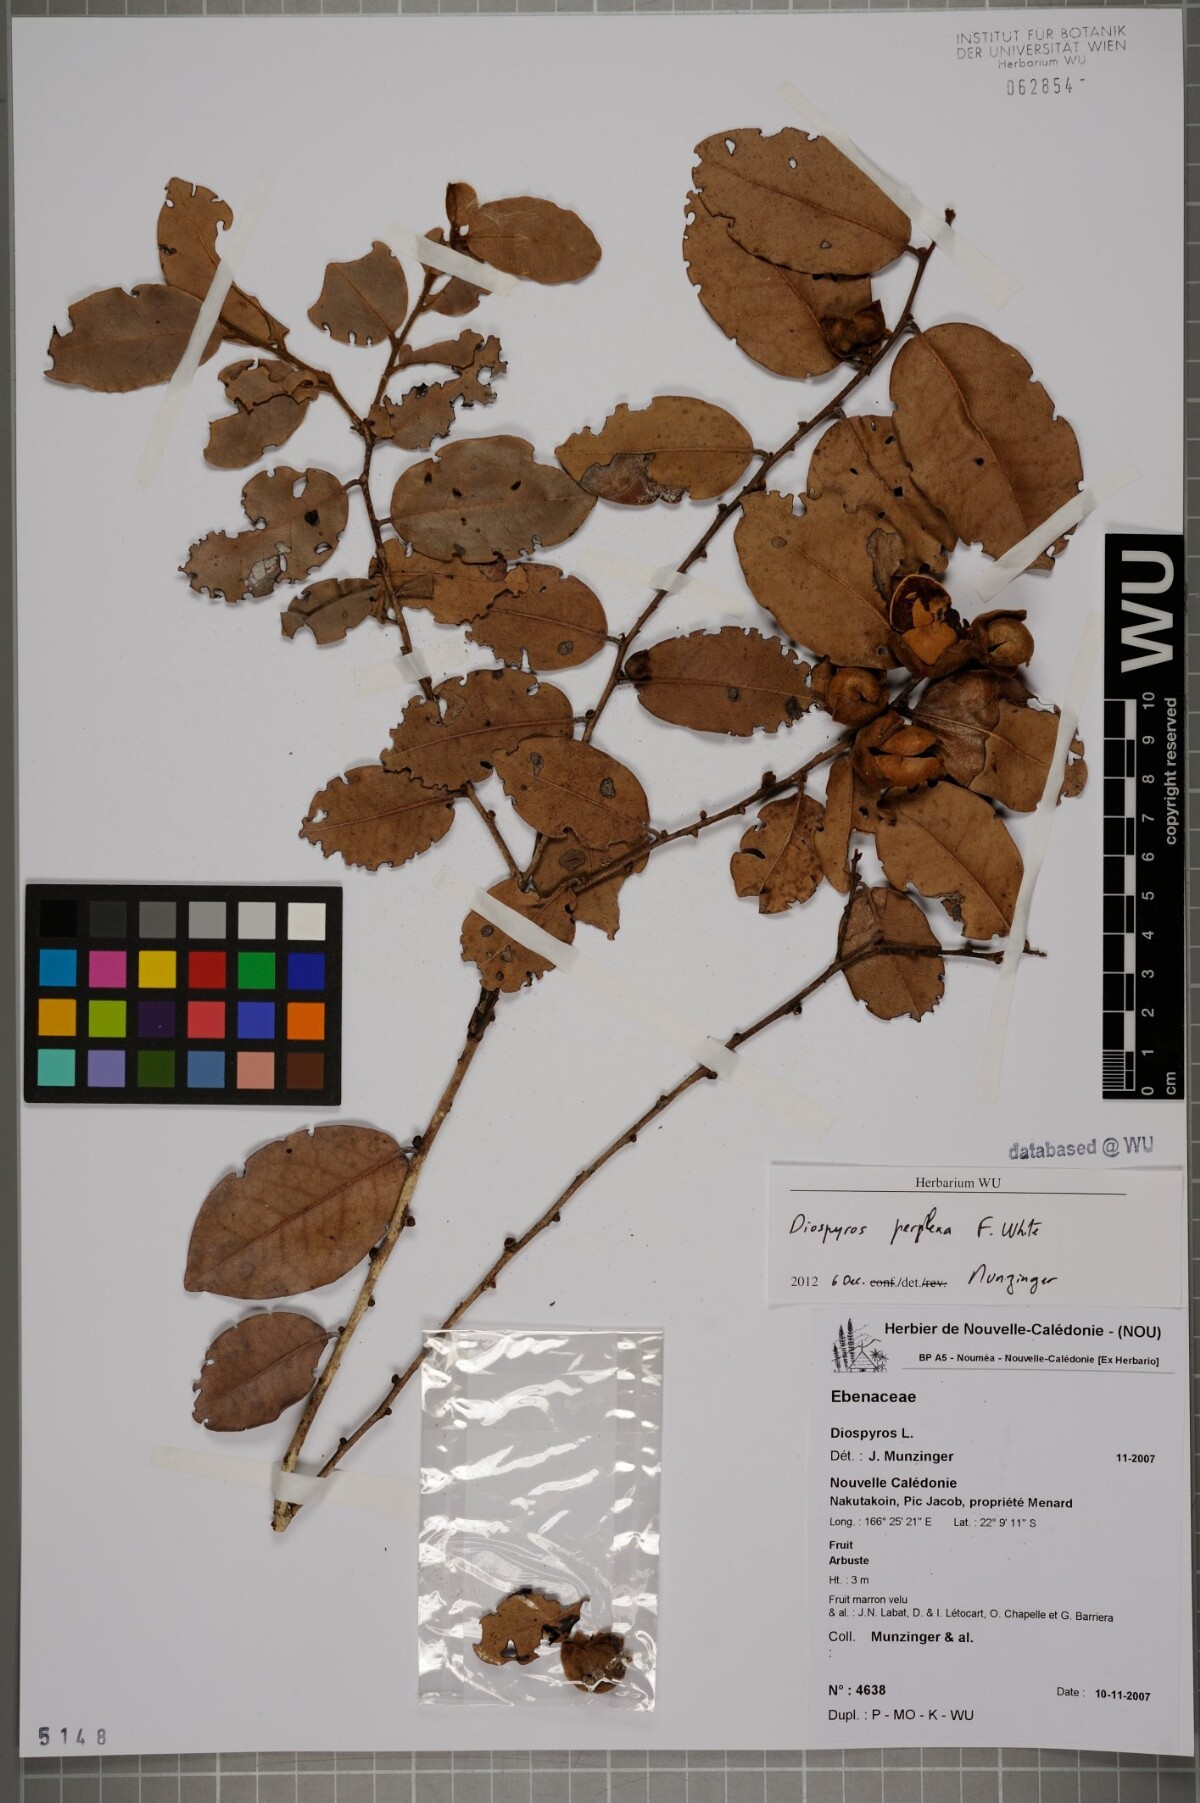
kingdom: Plantae
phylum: Tracheophyta
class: Magnoliopsida
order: Ericales
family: Ebenaceae
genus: Diospyros
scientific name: Diospyros perplexa
